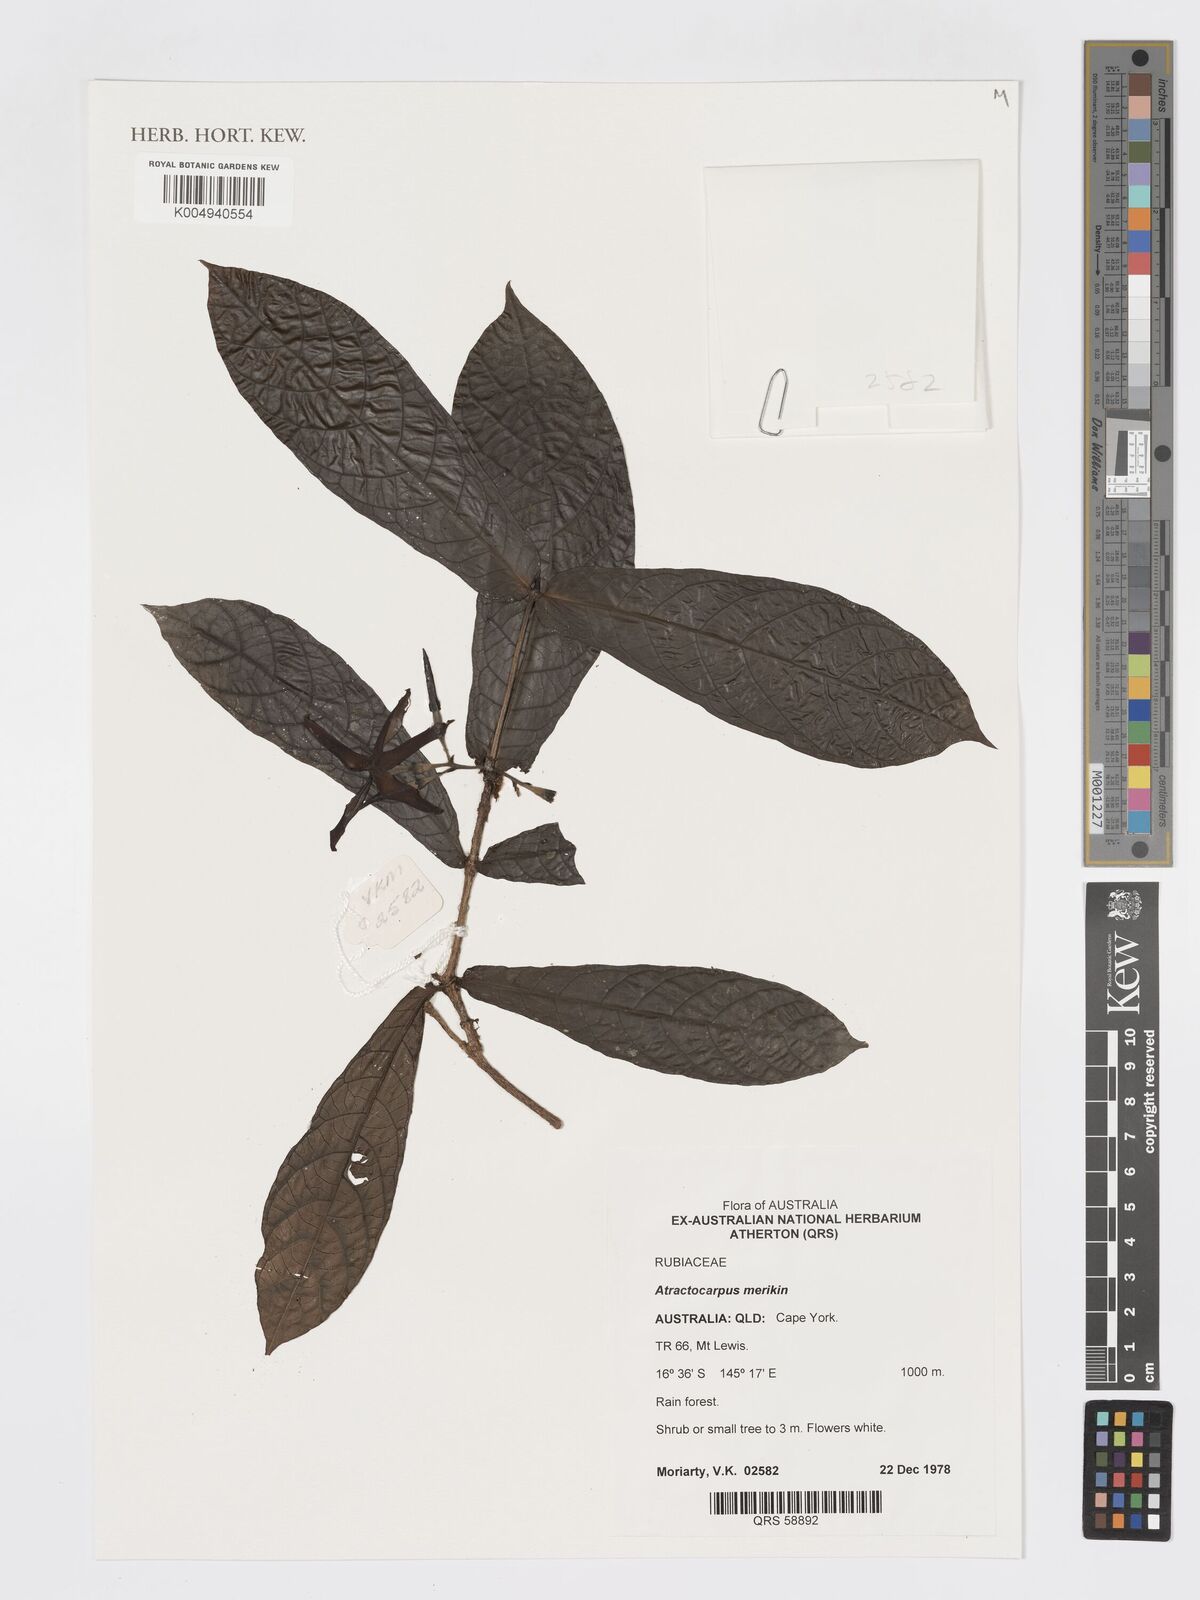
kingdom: Plantae
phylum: Tracheophyta
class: Magnoliopsida
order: Gentianales
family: Rubiaceae
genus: Atractocarpus
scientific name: Atractocarpus merikin
